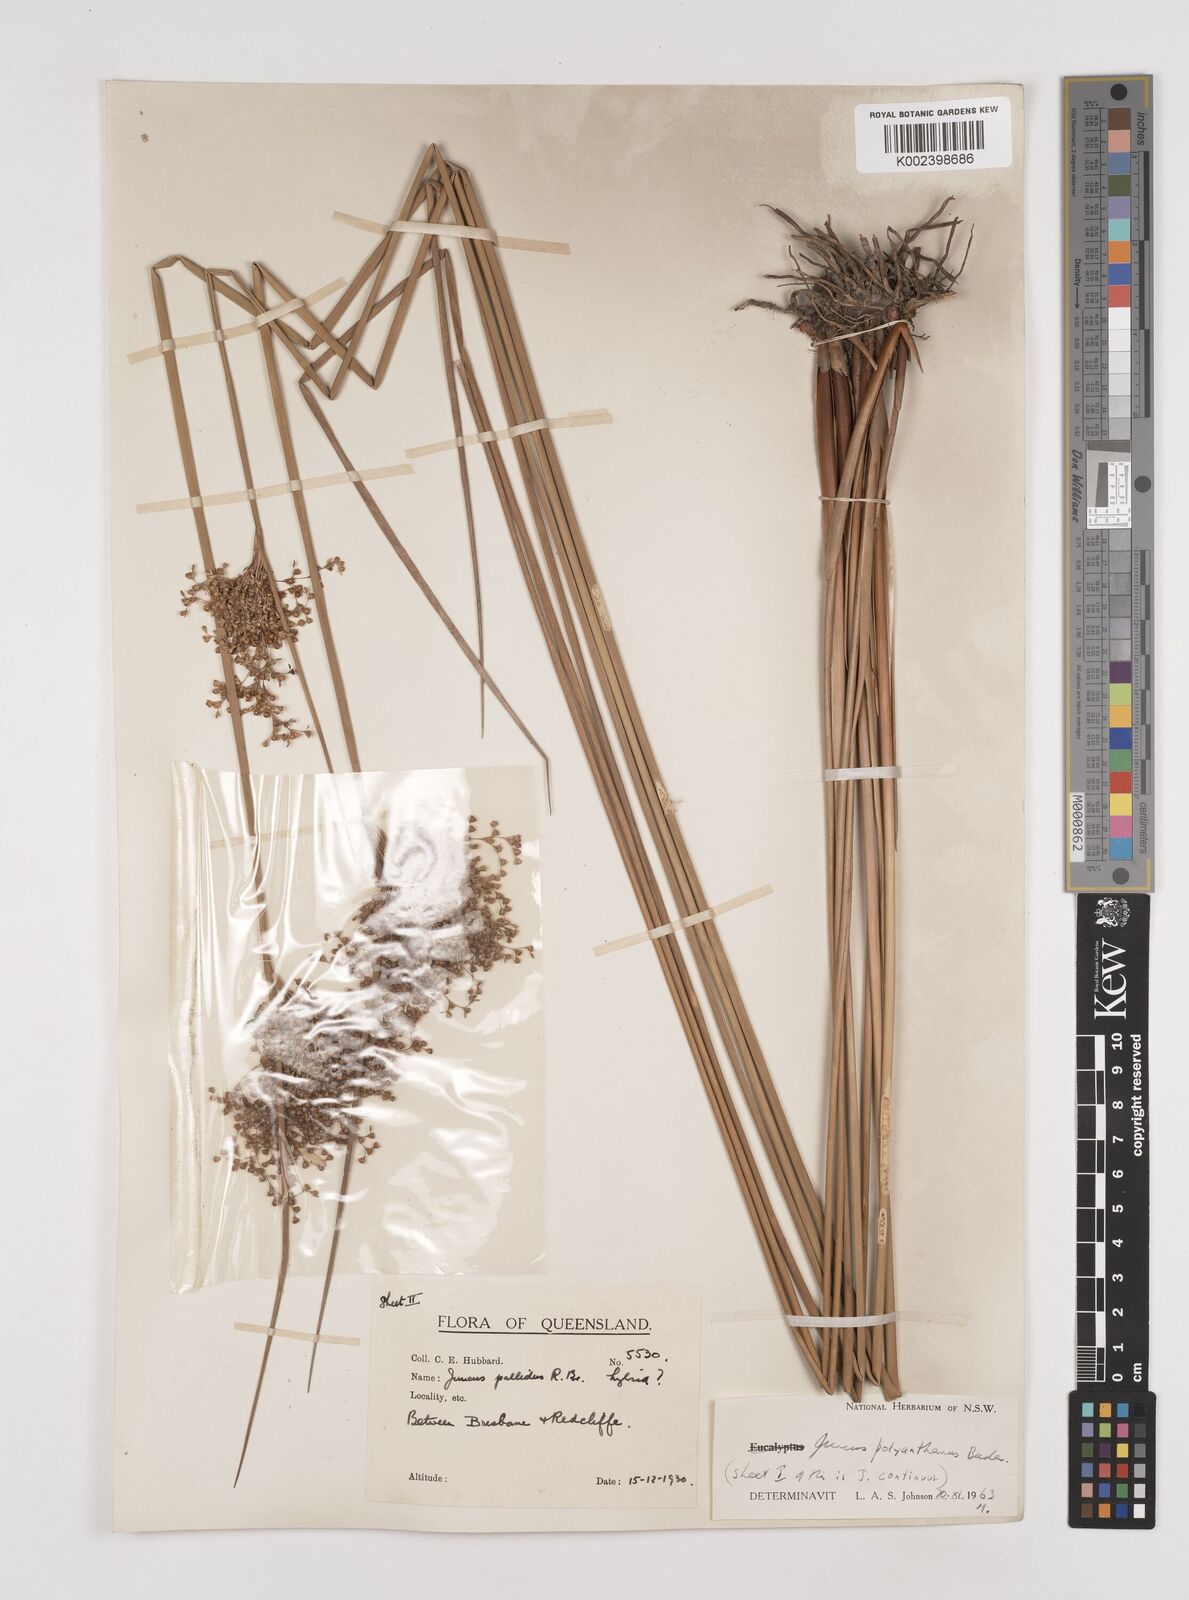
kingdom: Plantae
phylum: Tracheophyta
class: Liliopsida
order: Poales
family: Juncaceae
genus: Juncus
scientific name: Juncus polyanthemus
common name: Manyflower rush
